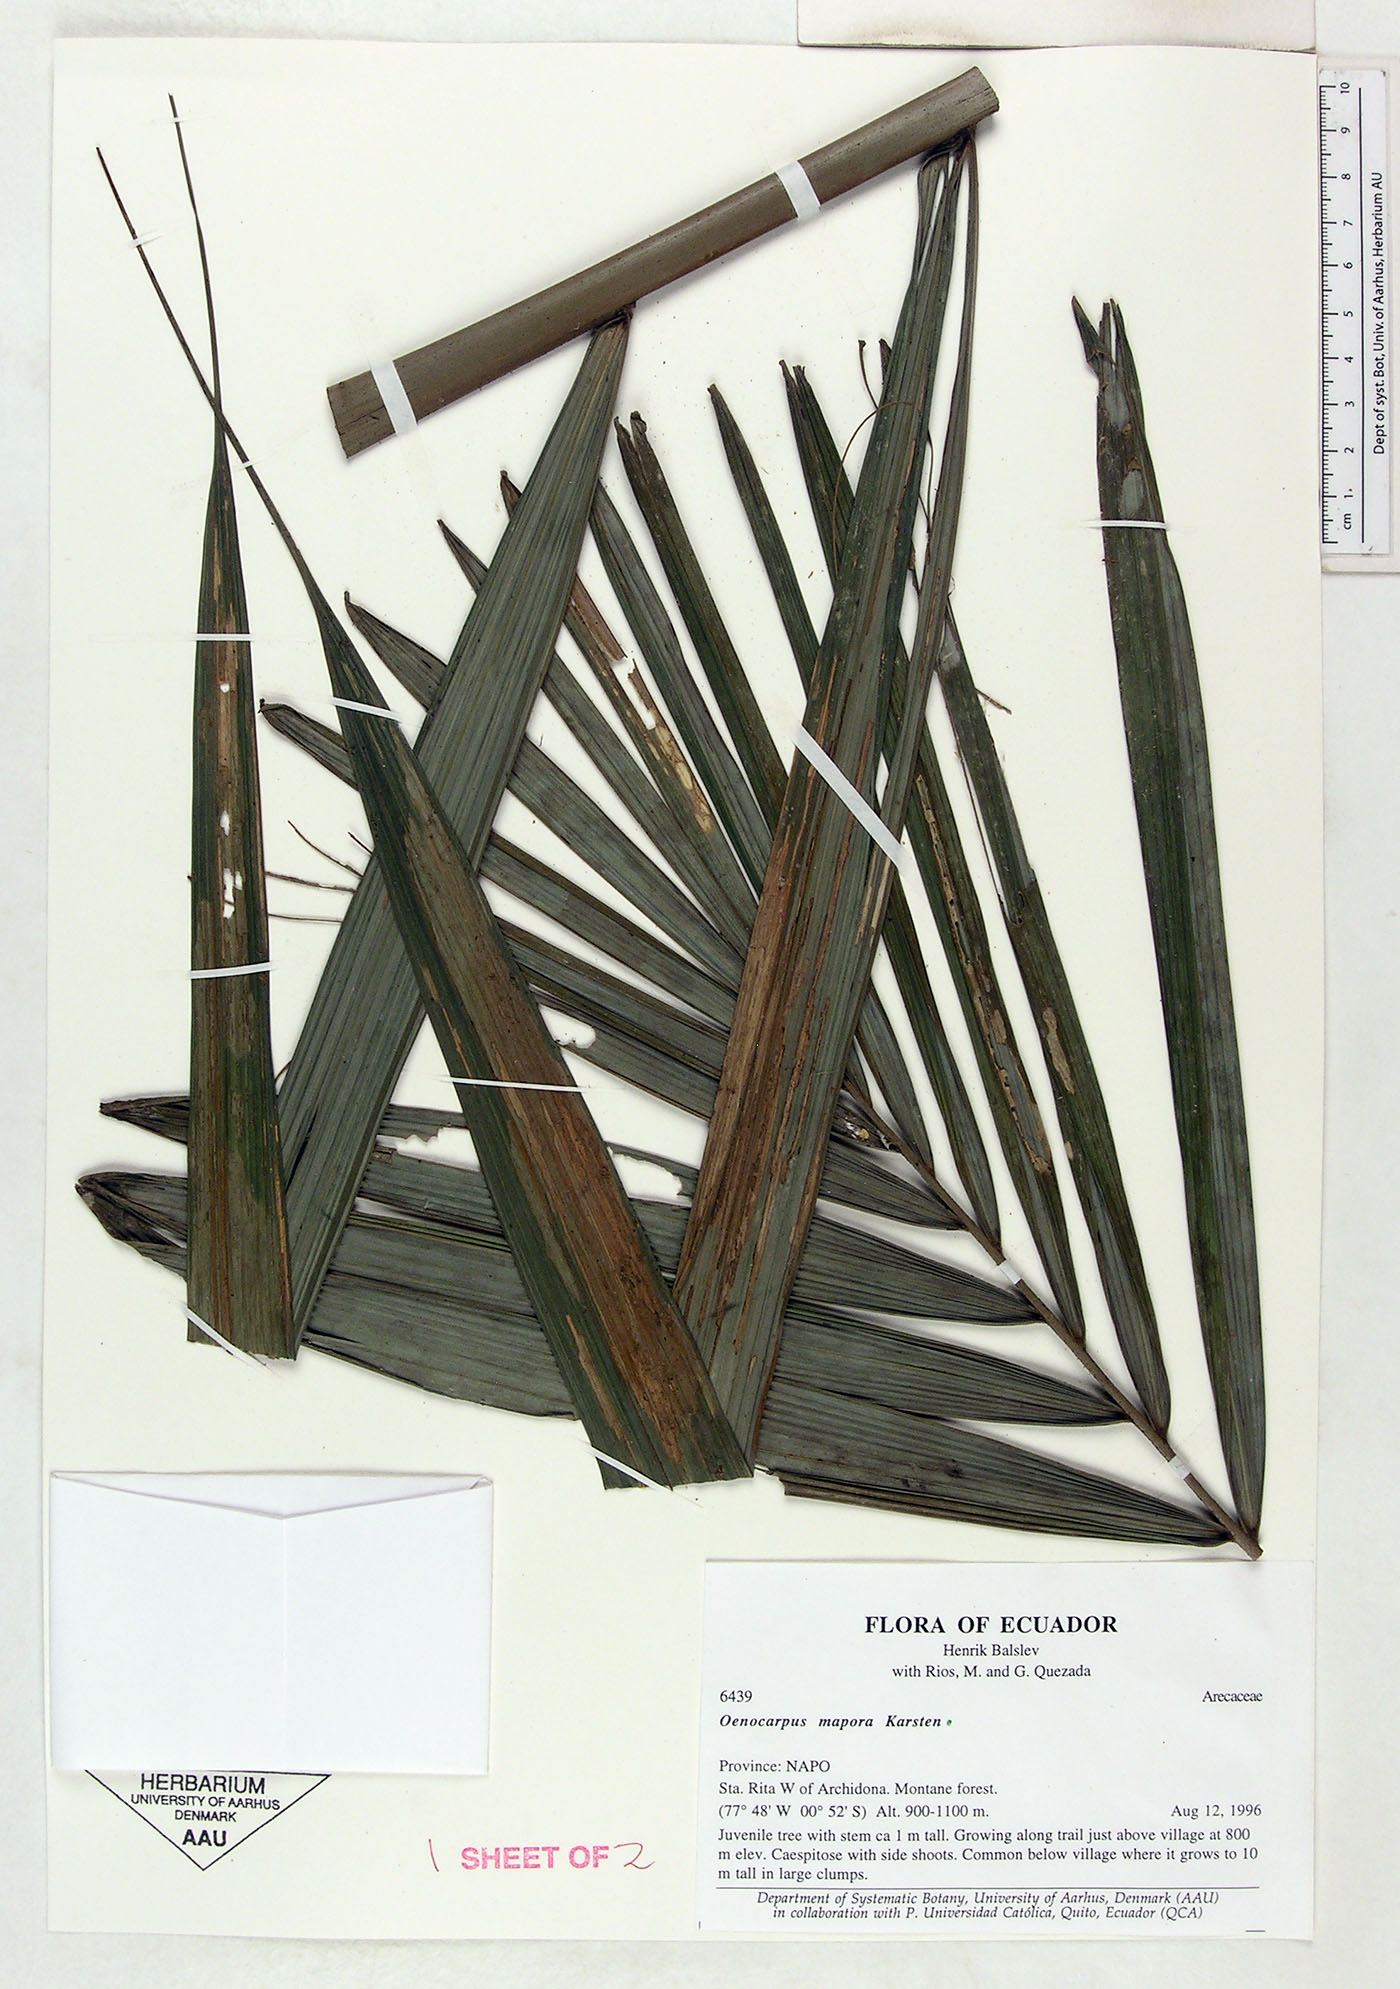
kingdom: Plantae
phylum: Tracheophyta
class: Liliopsida
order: Arecales
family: Arecaceae
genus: Oenocarpus
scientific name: Oenocarpus mapora
